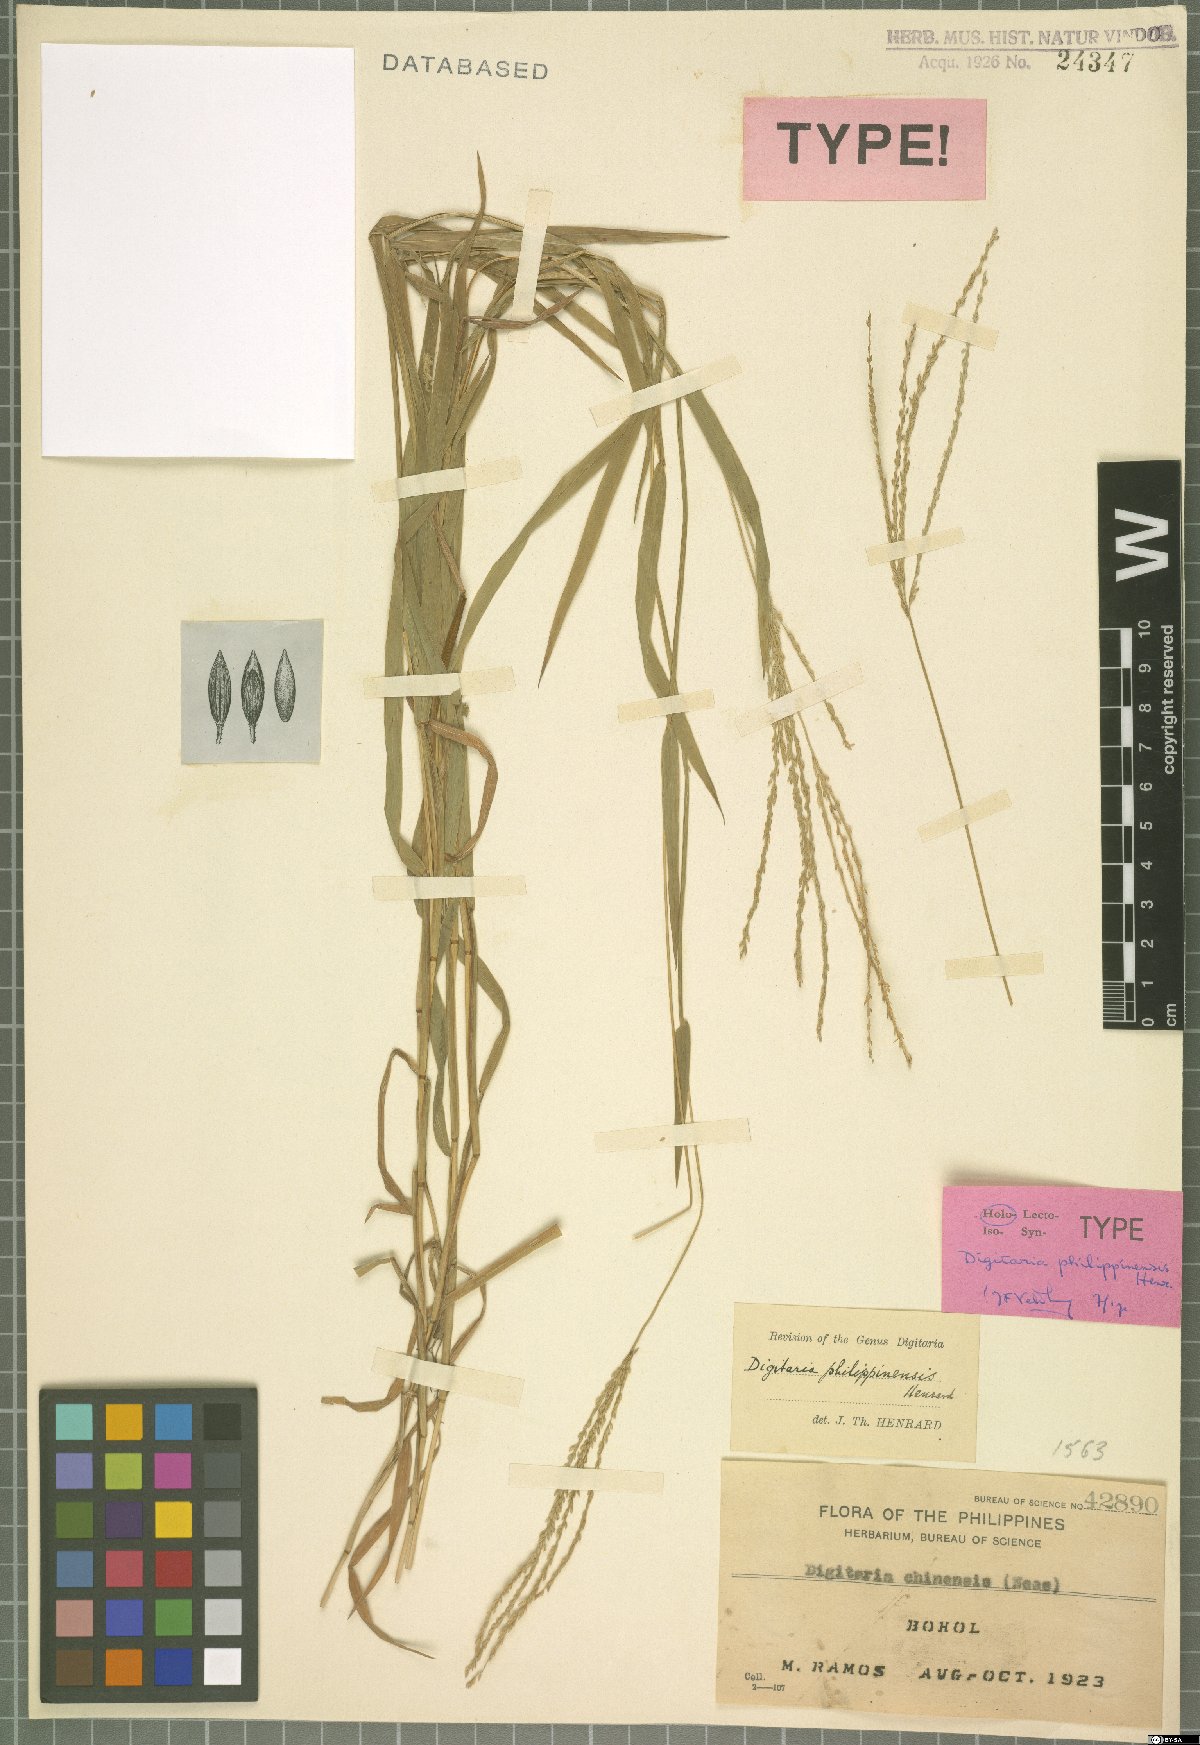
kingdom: Plantae
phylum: Tracheophyta
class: Liliopsida
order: Poales
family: Poaceae
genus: Digitaria
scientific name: Digitaria philippinensis
